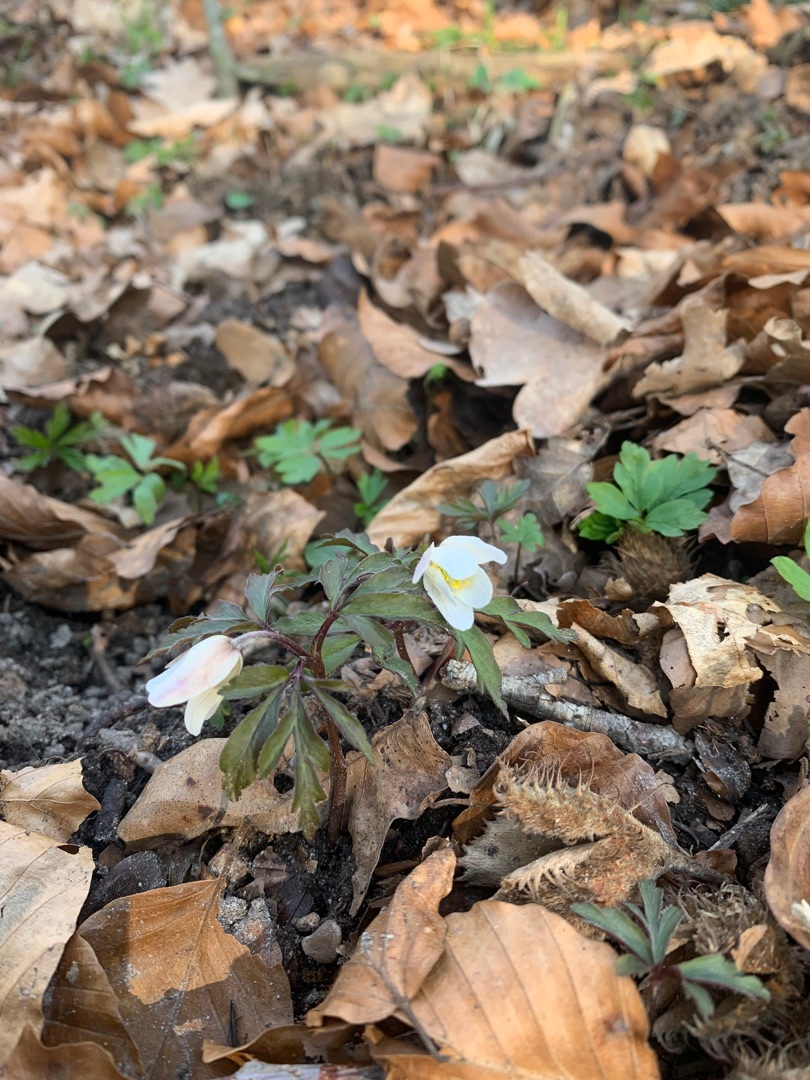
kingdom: Plantae
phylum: Tracheophyta
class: Magnoliopsida
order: Ranunculales
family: Ranunculaceae
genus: Anemone
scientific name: Anemone nemorosa
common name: Hvid anemone
